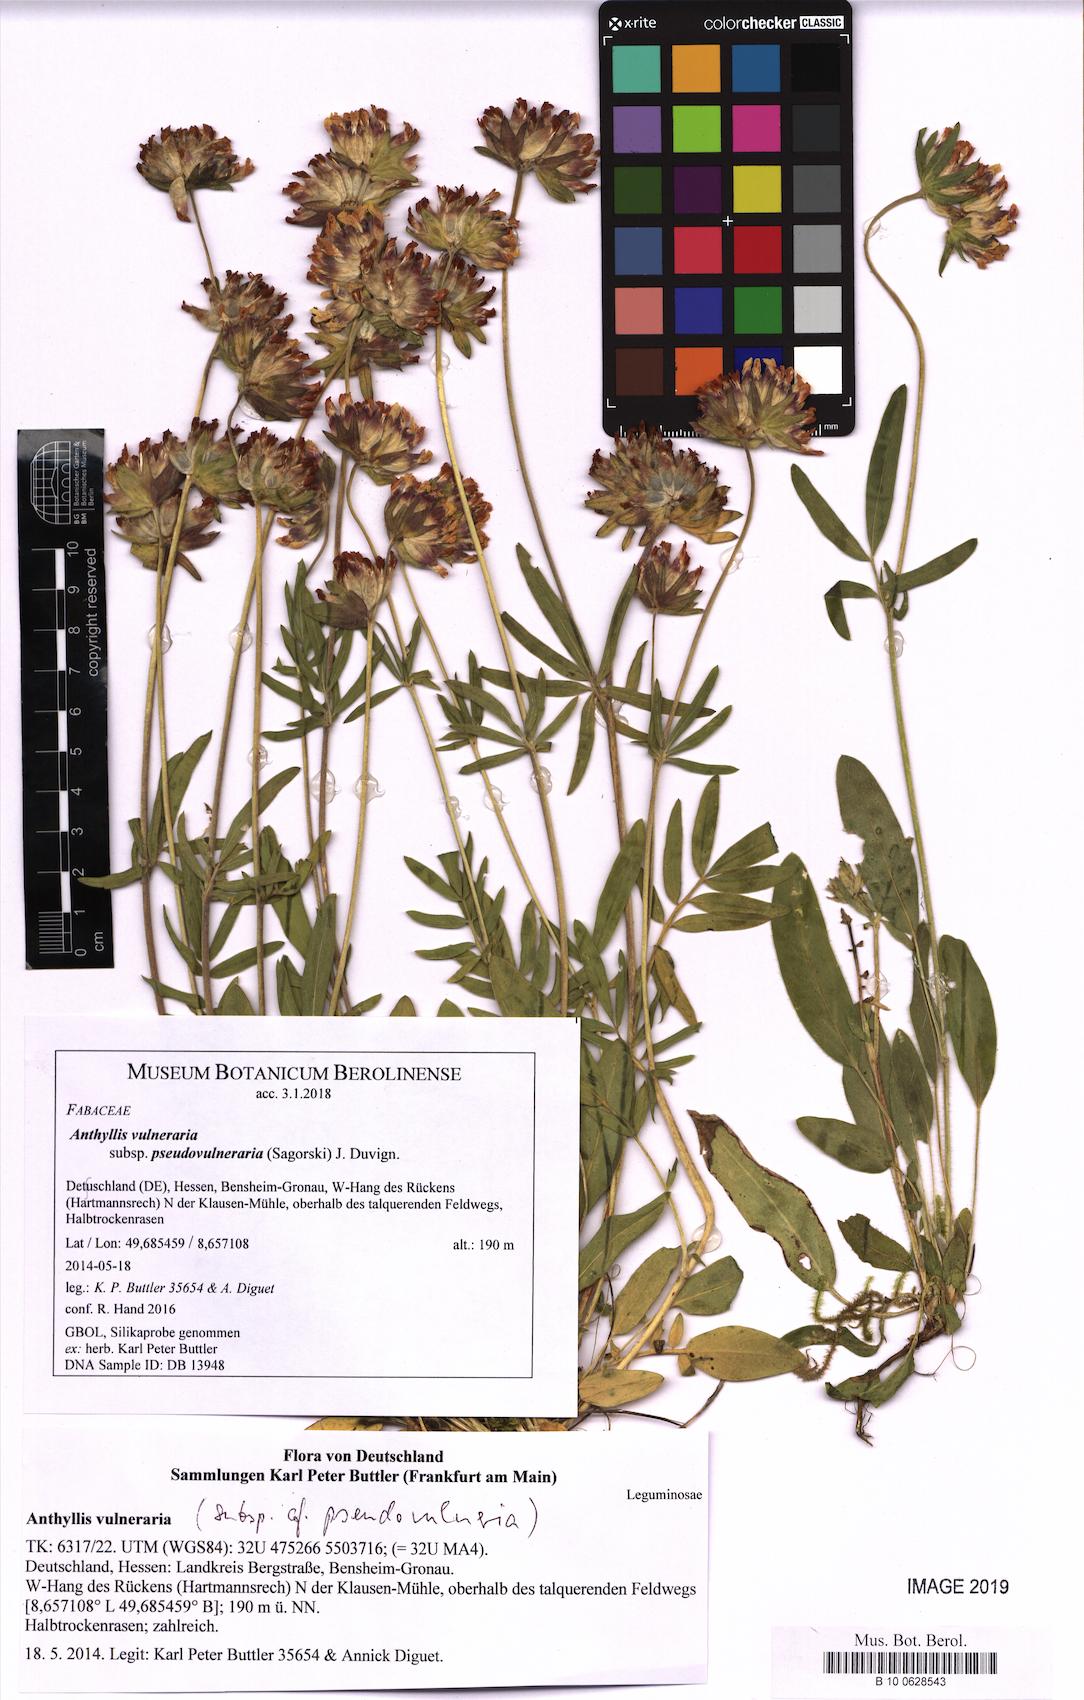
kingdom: Plantae
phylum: Tracheophyta
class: Magnoliopsida
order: Fabales
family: Fabaceae
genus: Anthyllis
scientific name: Anthyllis vulneraria
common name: Kidney vetch
